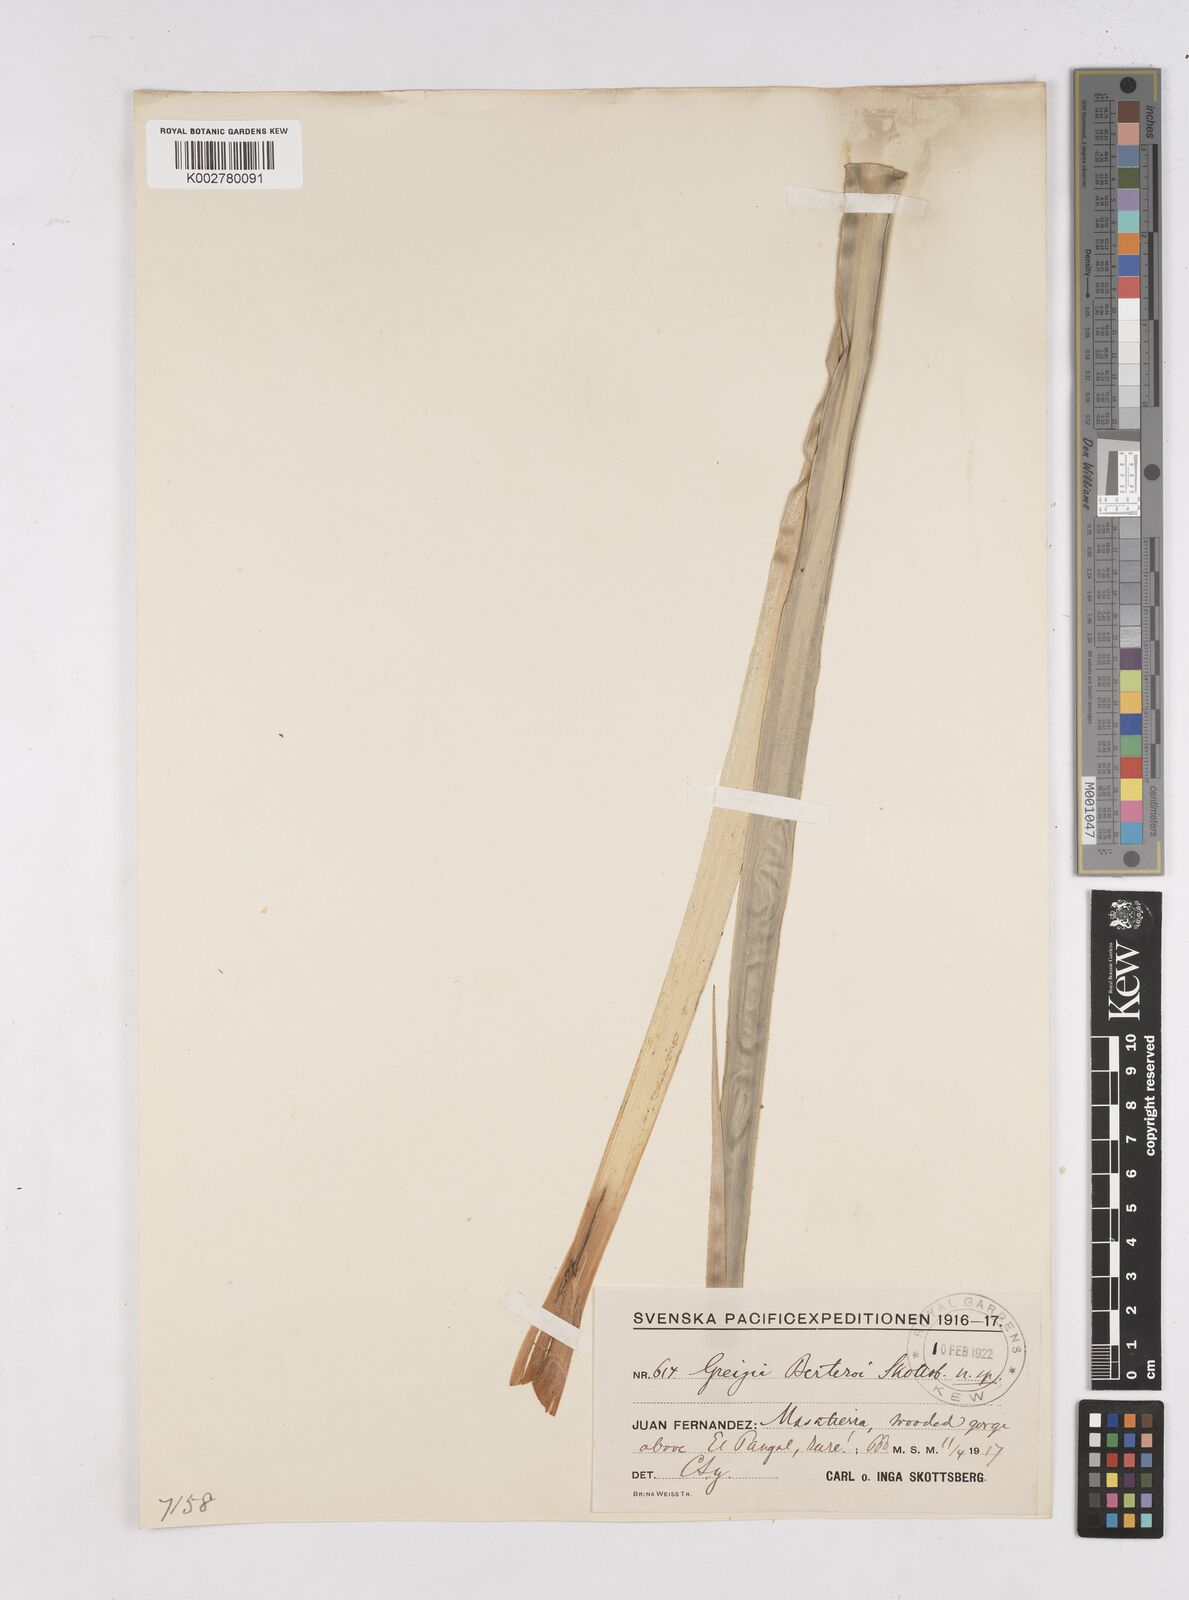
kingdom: Plantae
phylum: Tracheophyta
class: Liliopsida
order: Poales
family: Bromeliaceae
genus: Greigia
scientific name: Greigia berteroi
